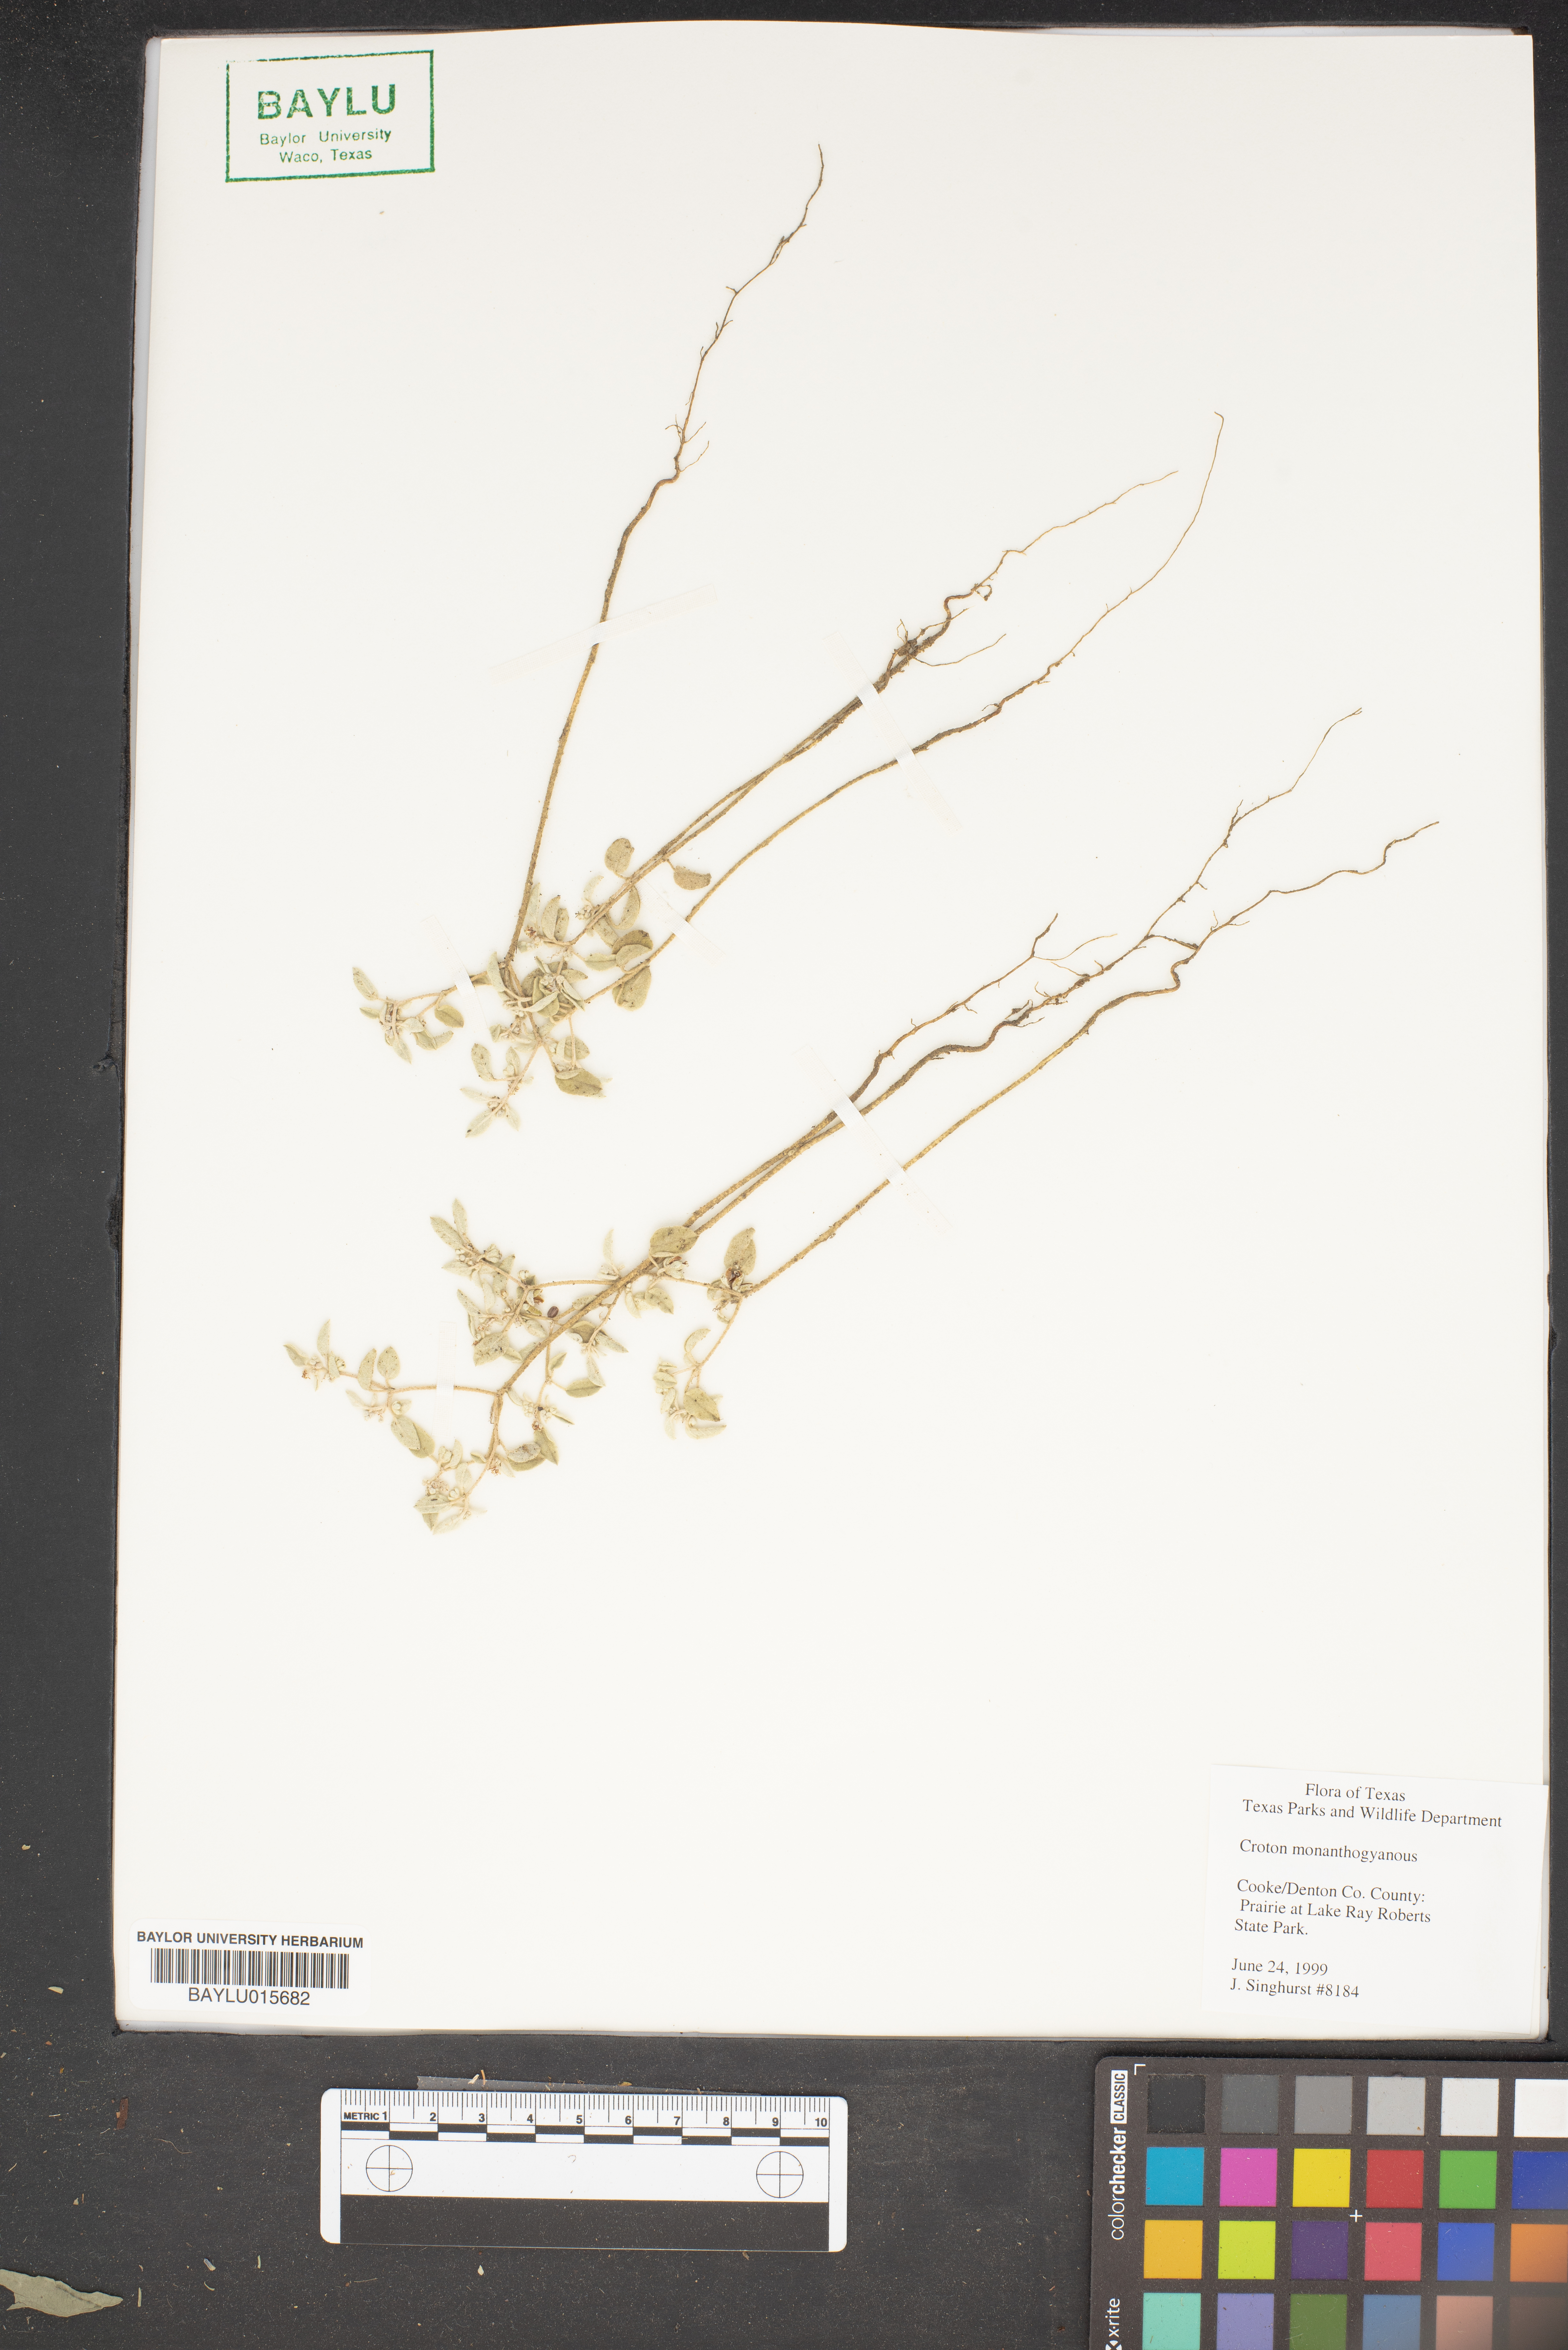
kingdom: Plantae
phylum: Tracheophyta
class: Magnoliopsida
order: Malpighiales
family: Euphorbiaceae
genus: Croton
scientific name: Croton monanthogynus
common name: One-seed croton
